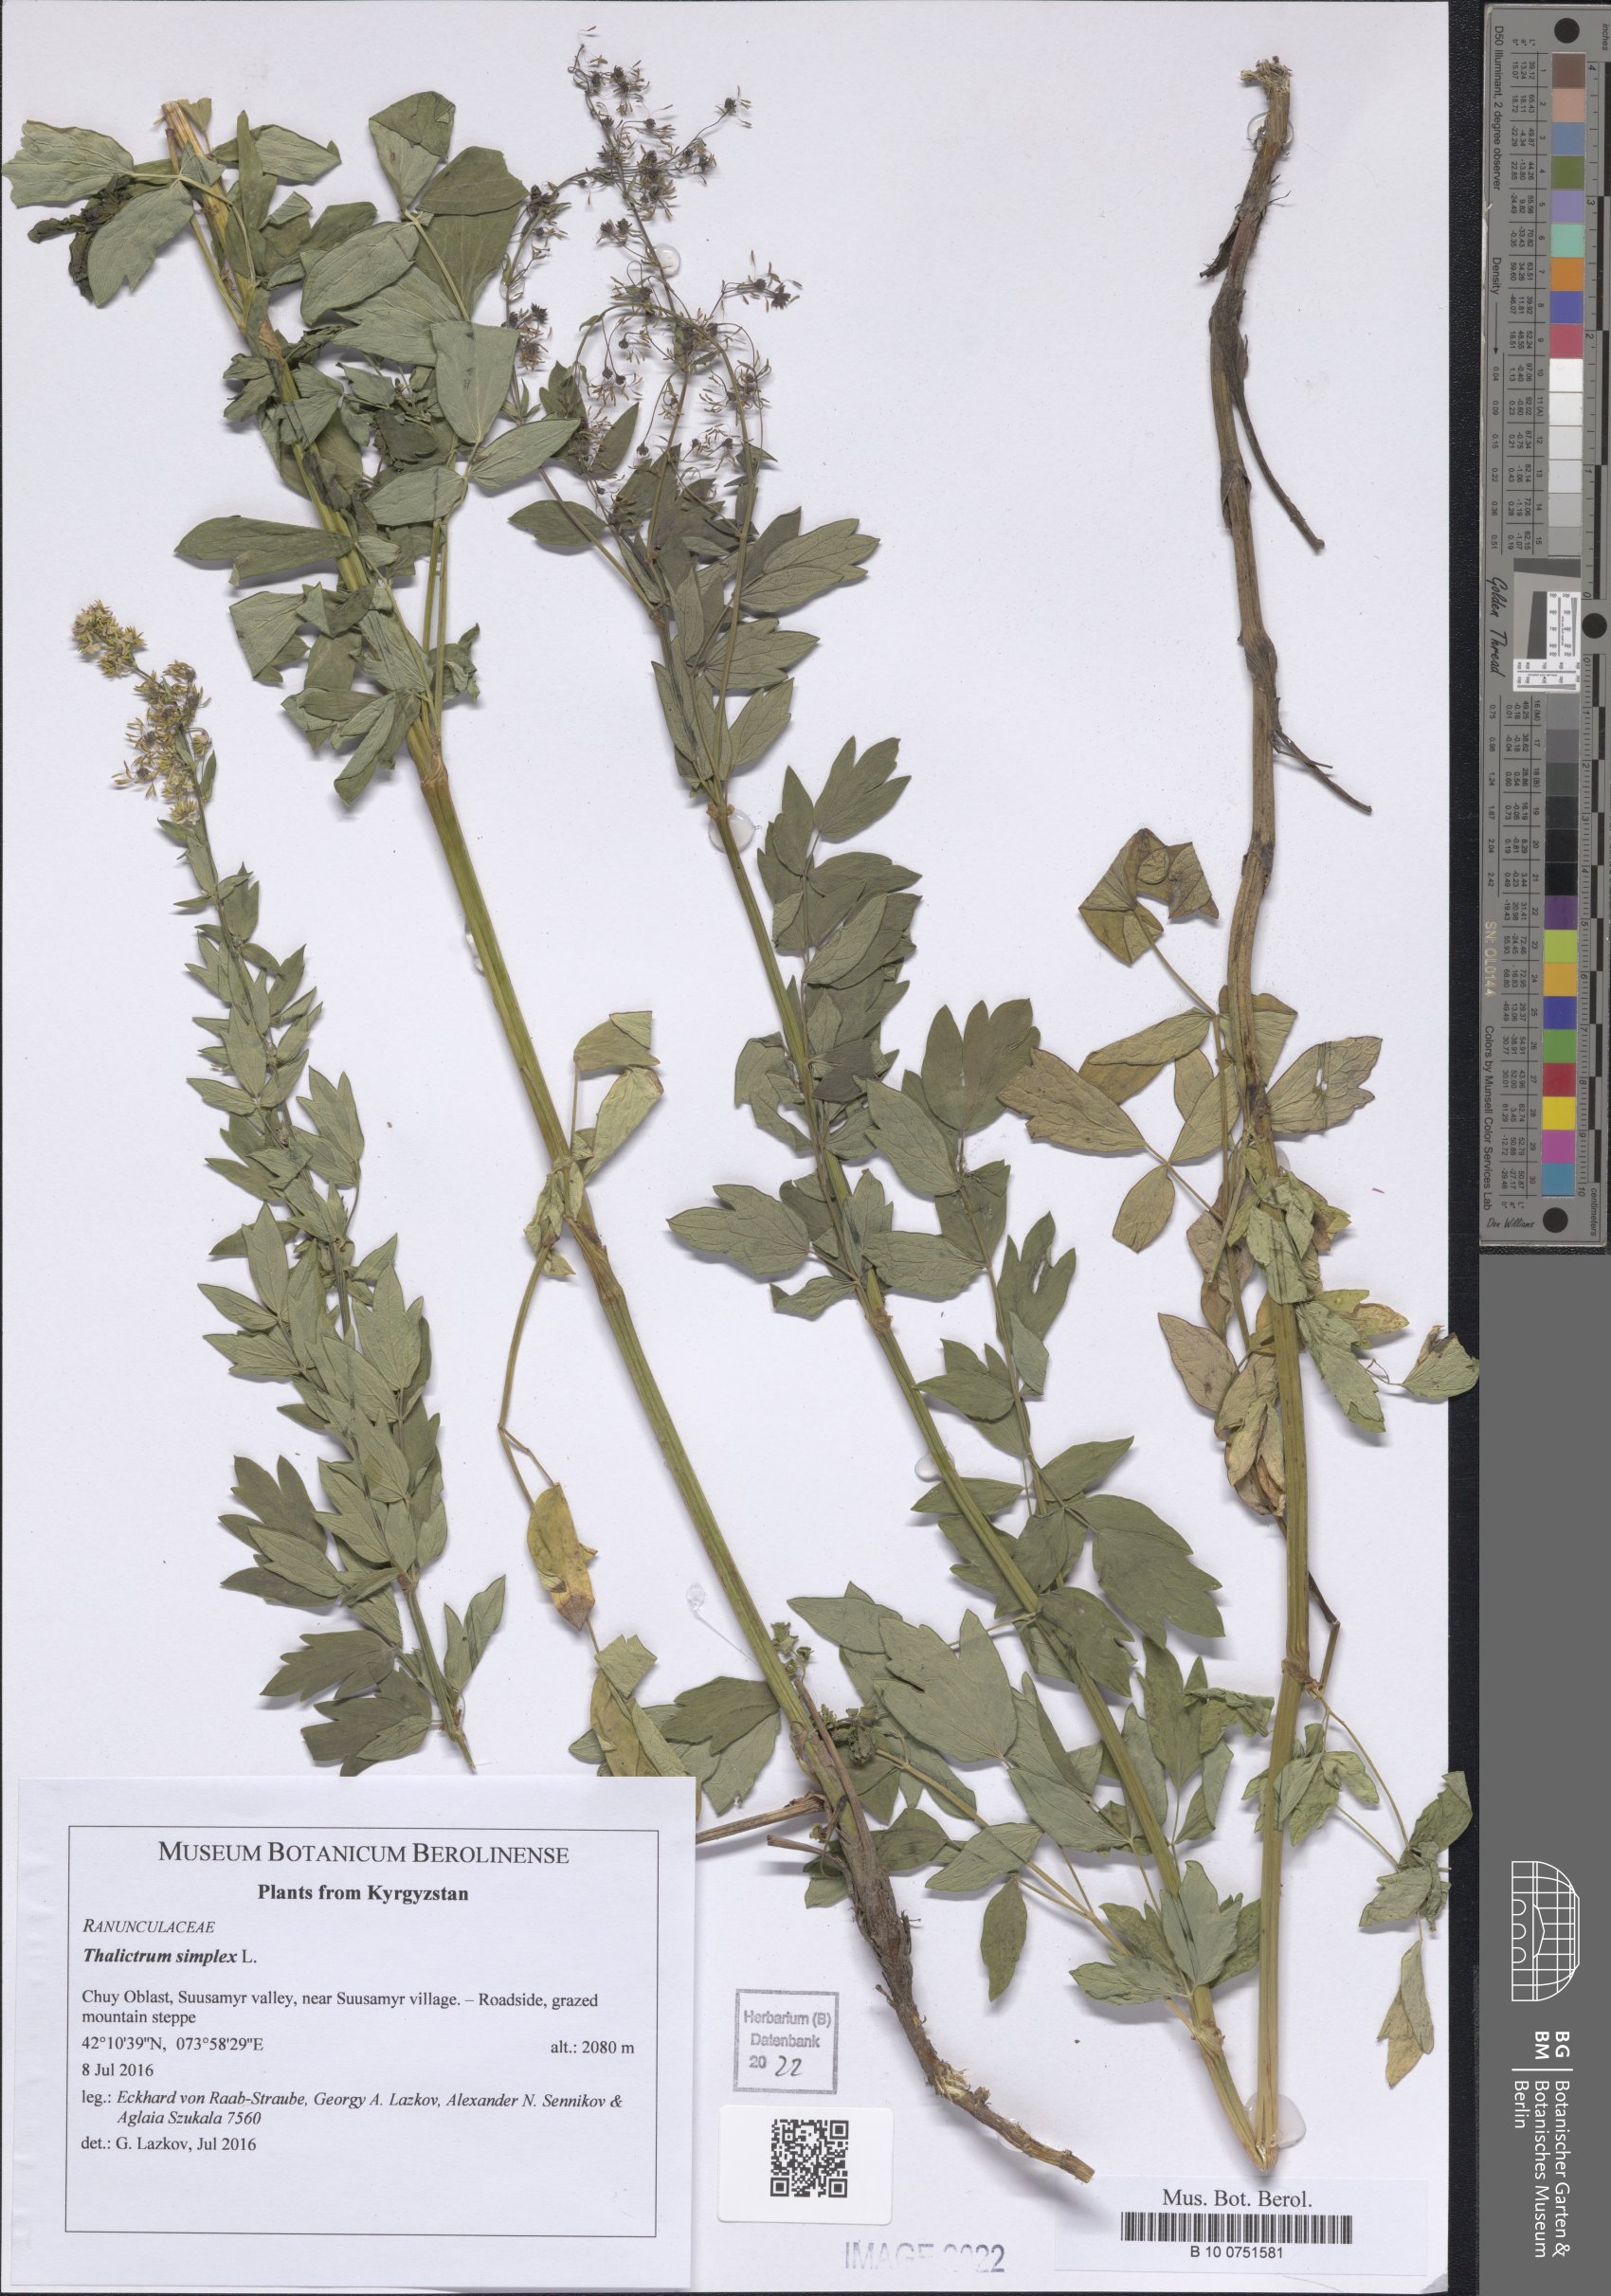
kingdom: Plantae
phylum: Tracheophyta
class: Magnoliopsida
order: Ranunculales
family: Ranunculaceae
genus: Thalictrum
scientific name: Thalictrum simplex
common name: Small meadow-rue
